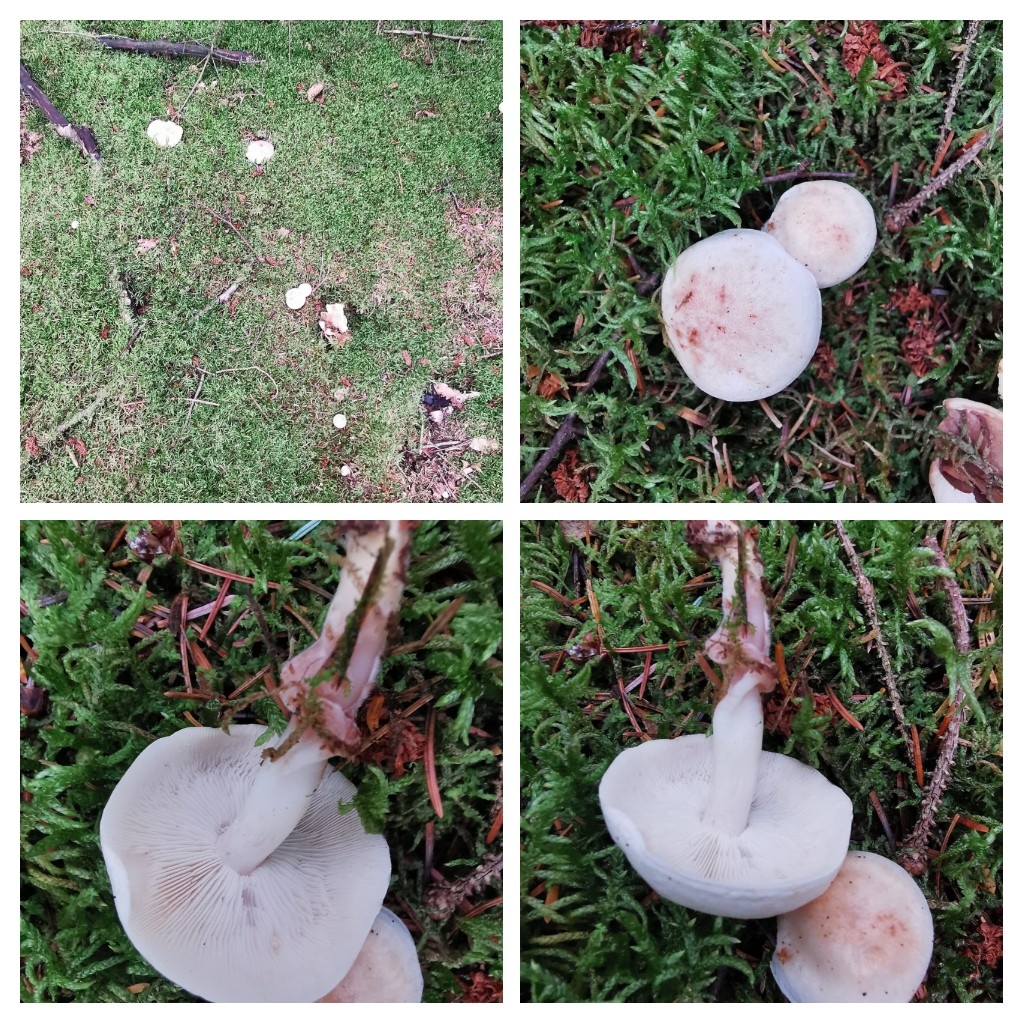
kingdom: Fungi
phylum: Basidiomycota
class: Agaricomycetes
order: Agaricales
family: Omphalotaceae
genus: Rhodocollybia
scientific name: Rhodocollybia maculata
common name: plettet fladhat
